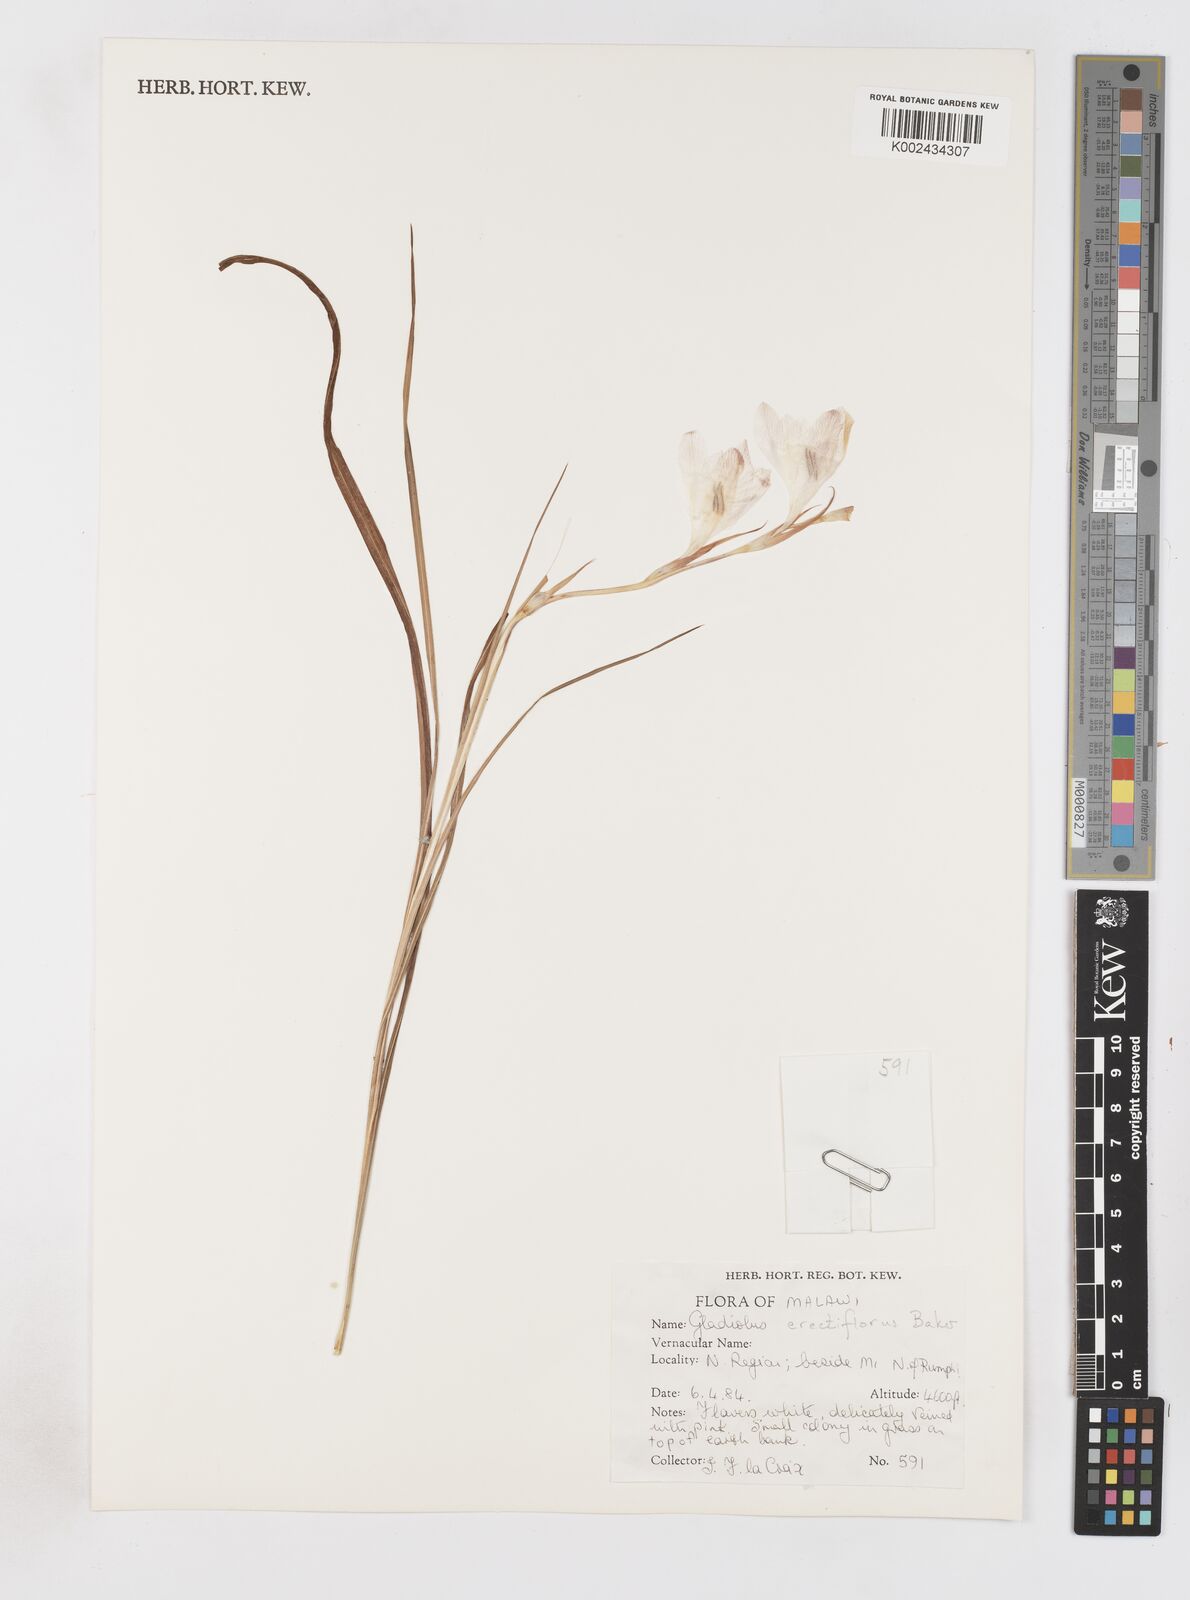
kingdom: Plantae
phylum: Tracheophyta
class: Liliopsida
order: Asparagales
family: Iridaceae
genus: Gladiolus
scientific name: Gladiolus erectiflorus
